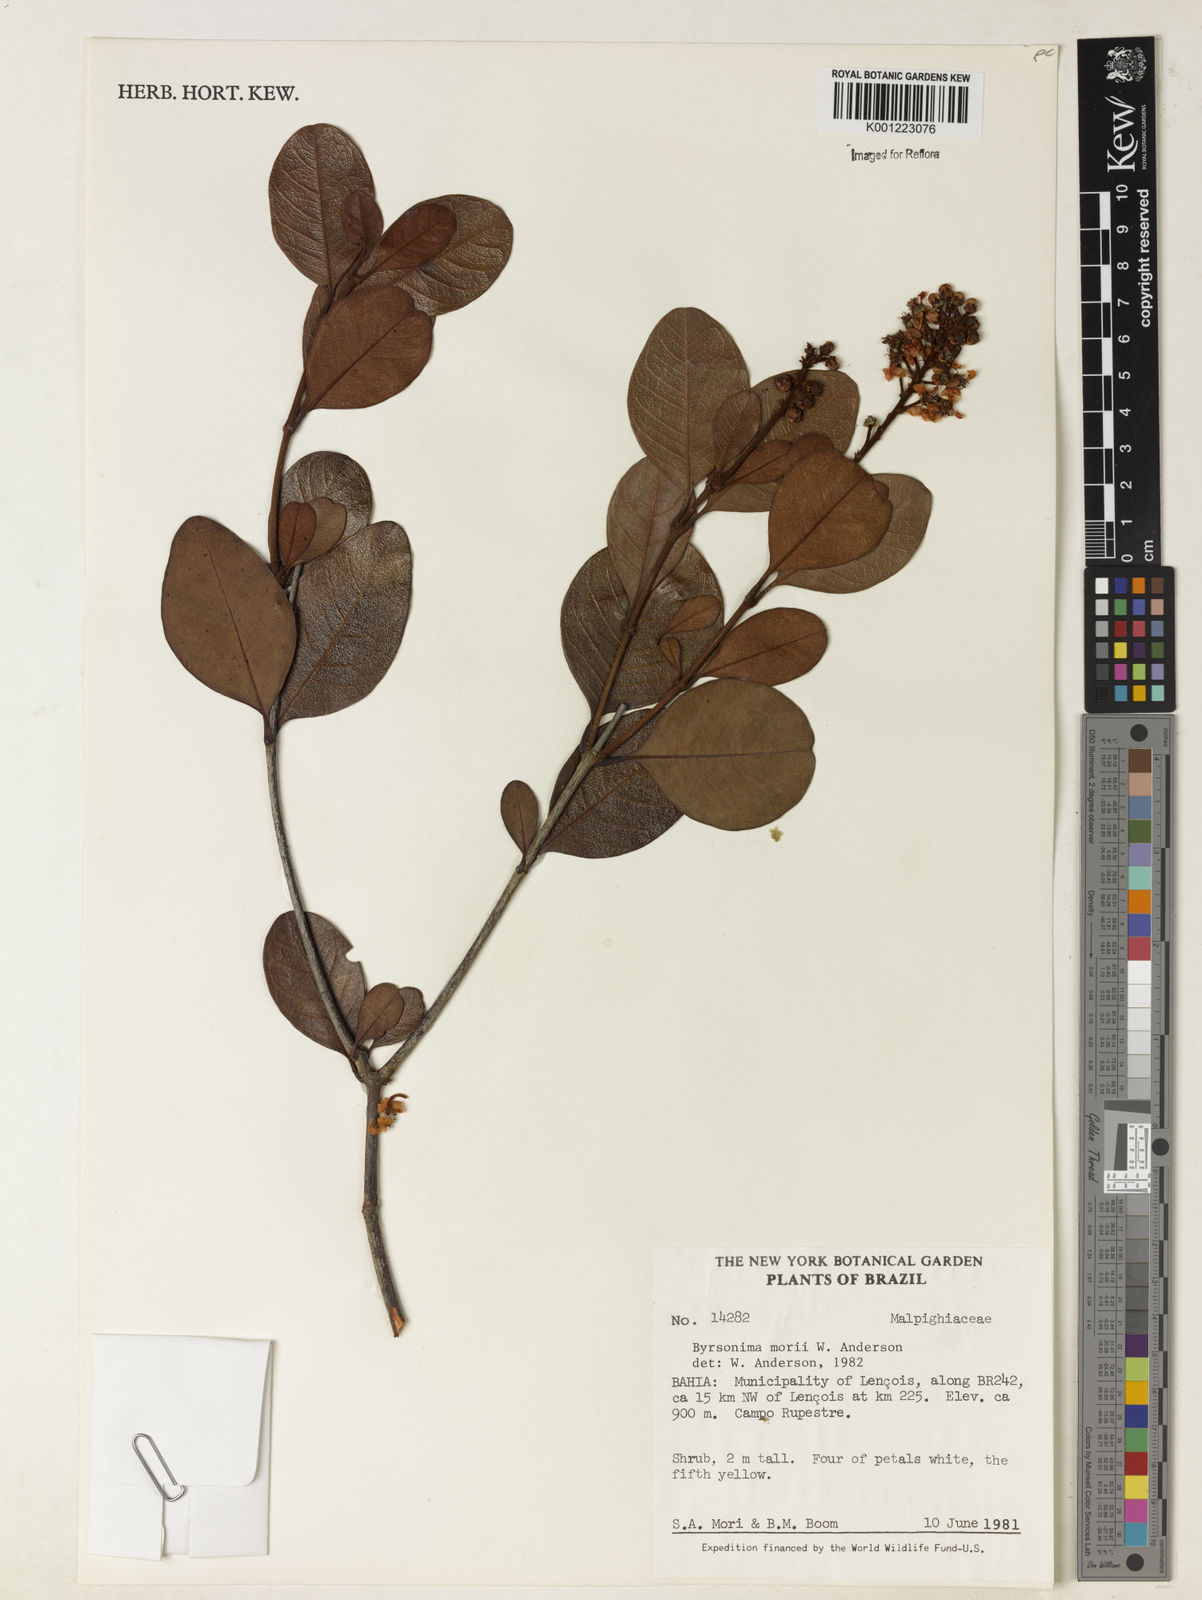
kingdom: Plantae
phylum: Tracheophyta
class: Magnoliopsida
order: Malpighiales
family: Malpighiaceae
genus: Byrsonima
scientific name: Byrsonima morii
